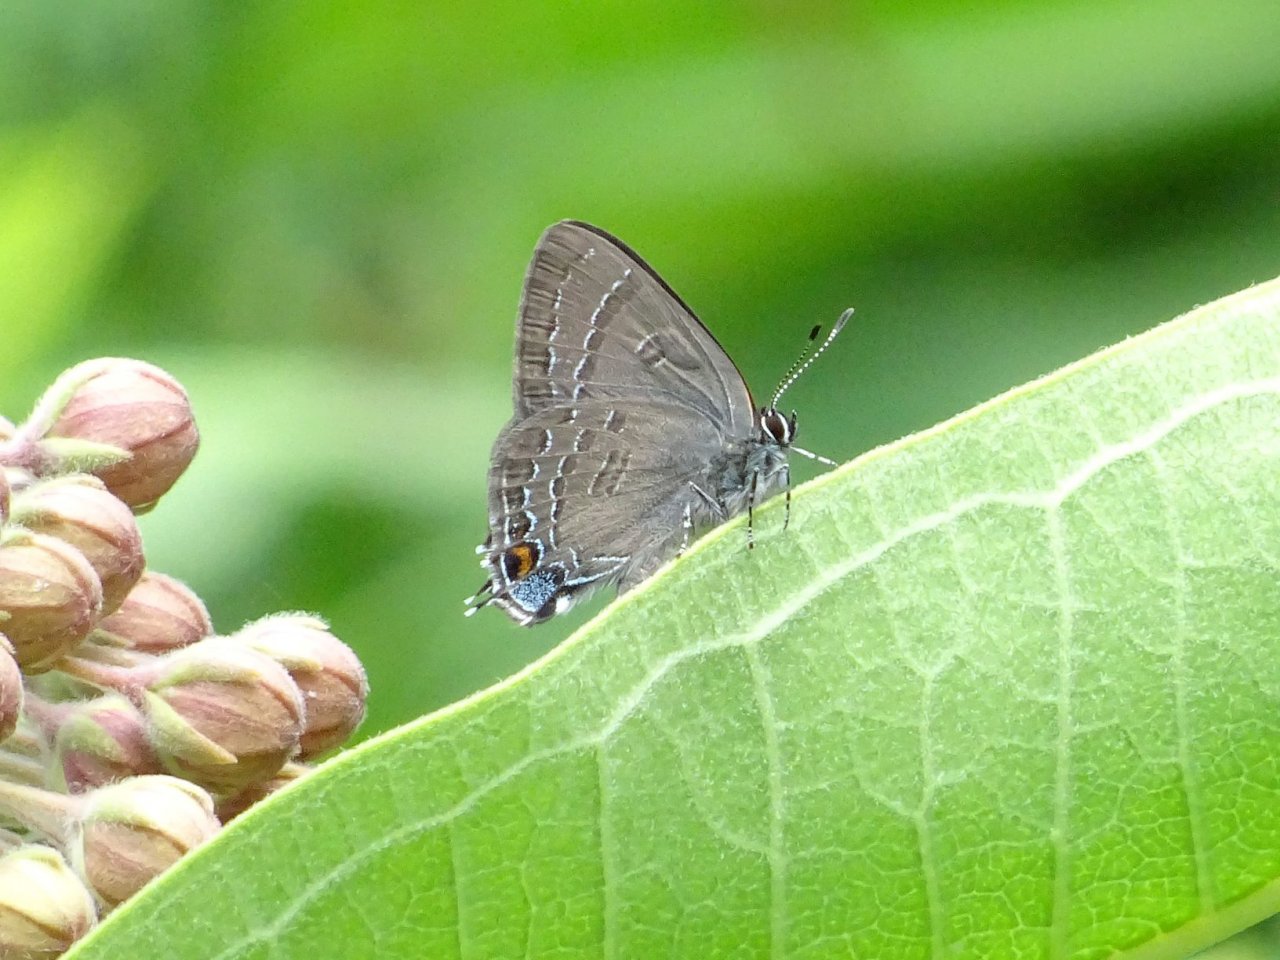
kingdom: Animalia
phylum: Arthropoda
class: Insecta
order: Lepidoptera
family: Lycaenidae
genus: Satyrium
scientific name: Satyrium calanus
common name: Banded Hairstreak
